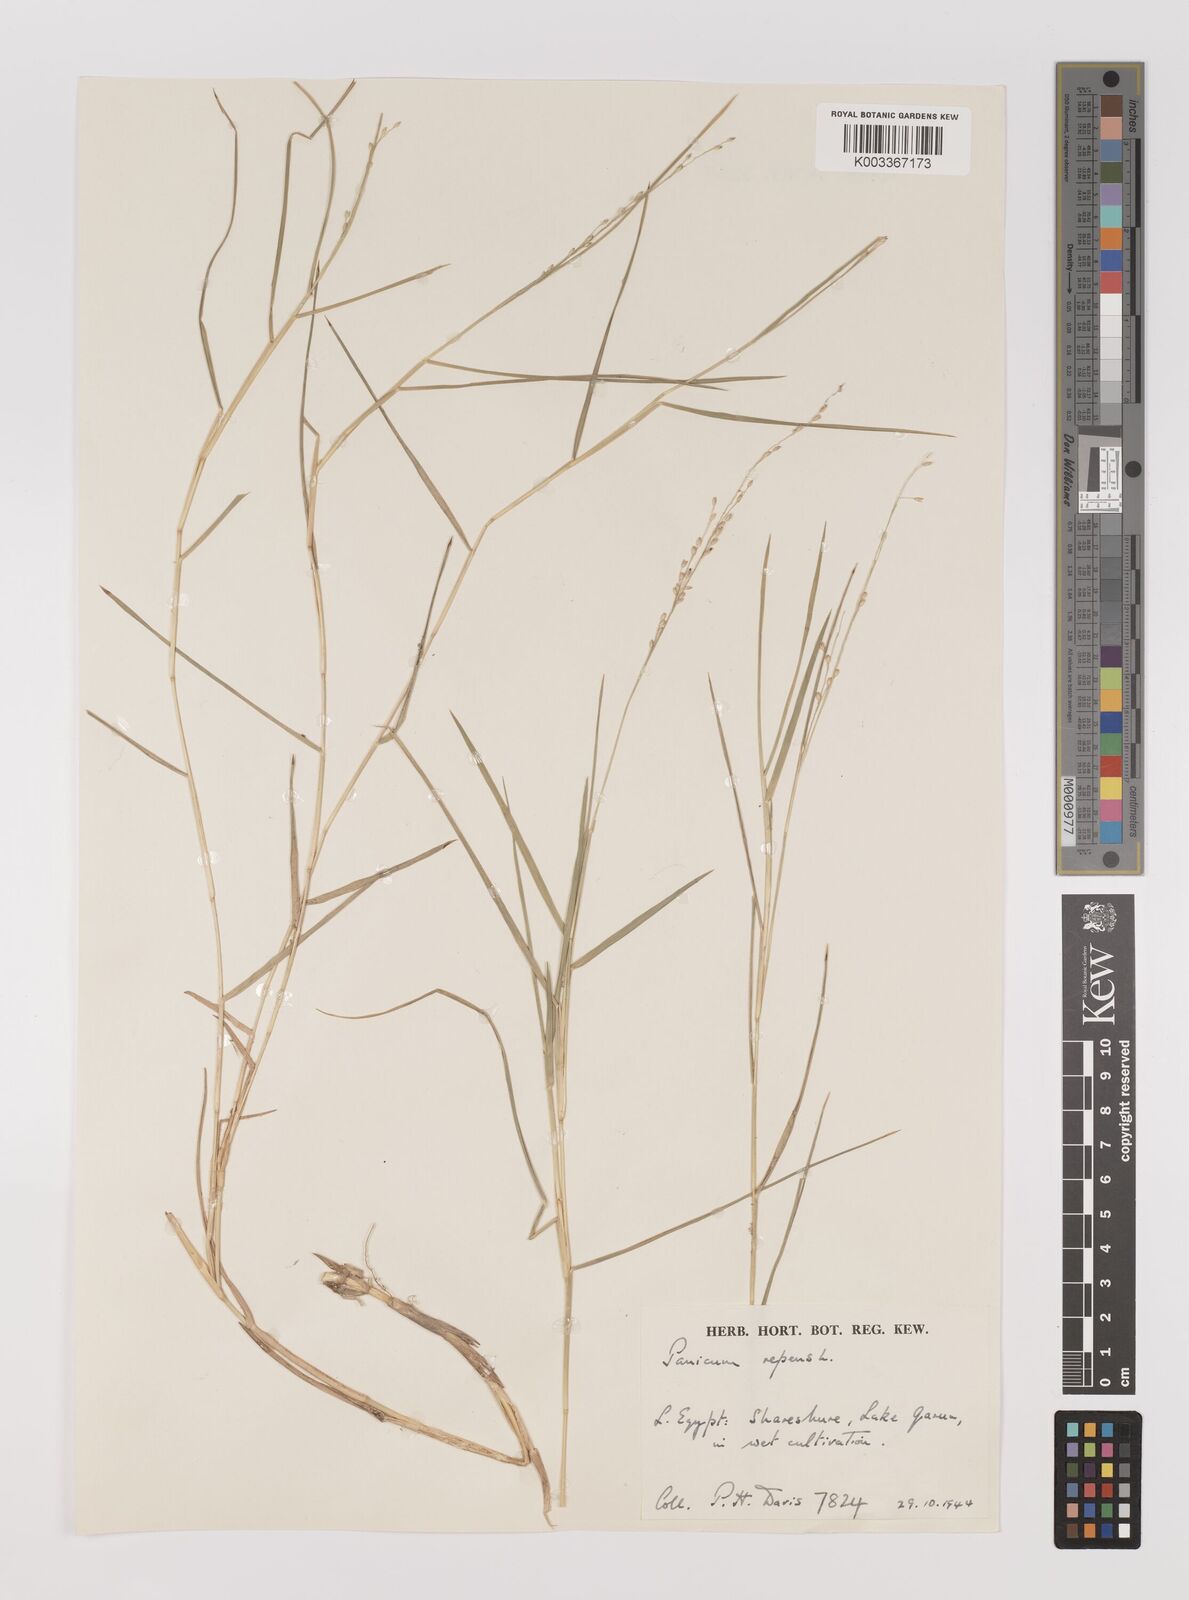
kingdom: Plantae
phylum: Tracheophyta
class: Liliopsida
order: Poales
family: Poaceae
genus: Panicum
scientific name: Panicum repens
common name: Torpedo grass
